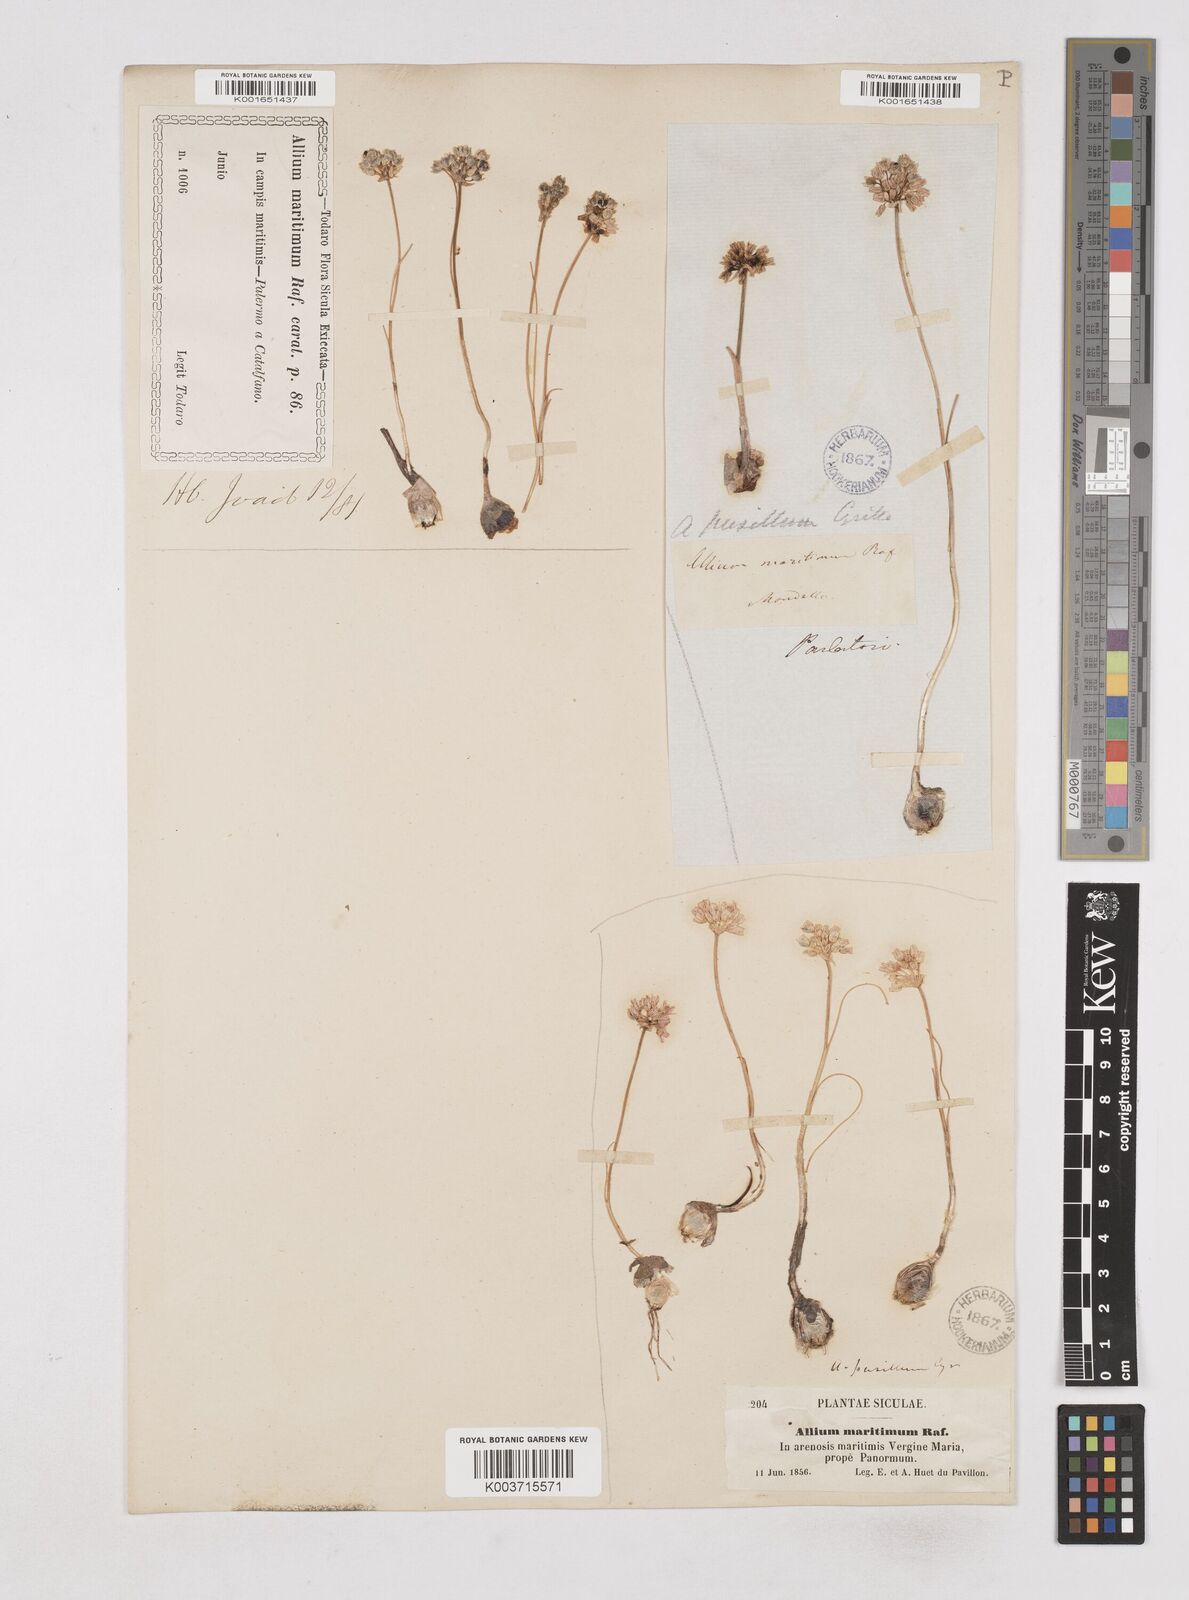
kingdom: Plantae
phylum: Tracheophyta
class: Liliopsida
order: Asparagales
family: Amaryllidaceae
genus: Allium
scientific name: Allium
